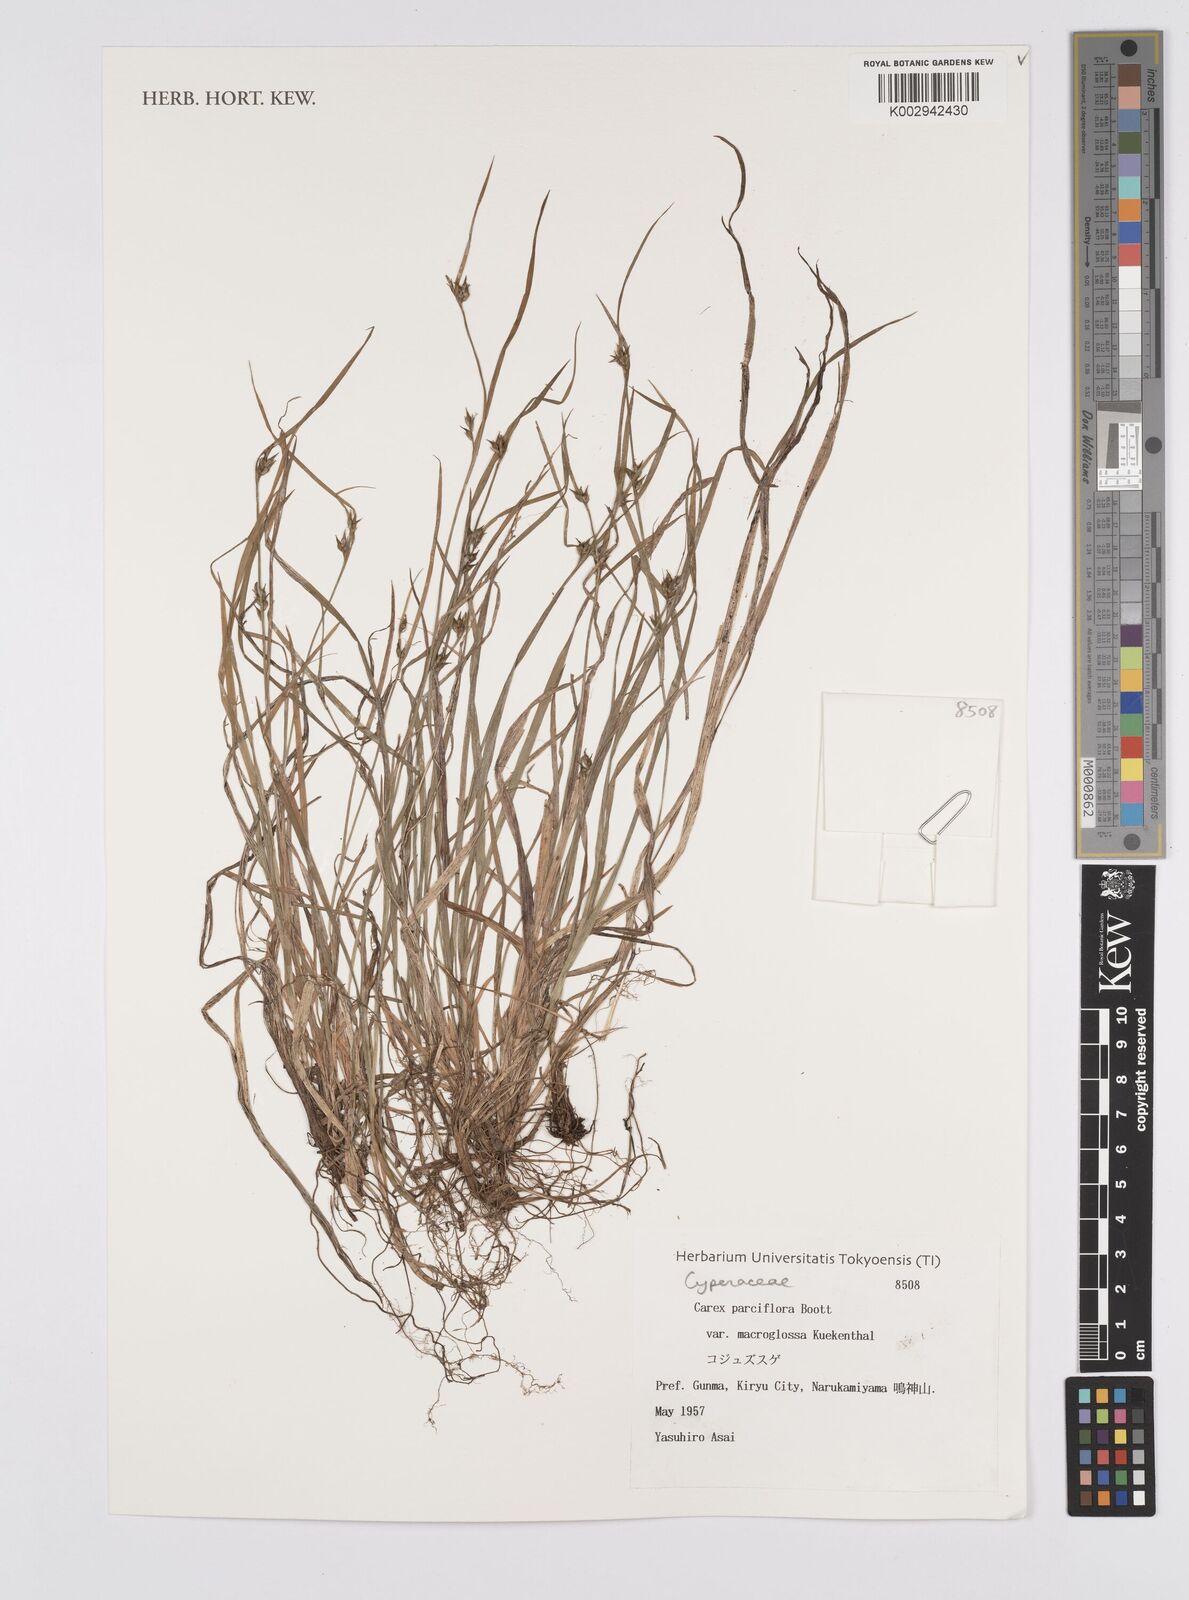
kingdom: Plantae
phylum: Tracheophyta
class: Liliopsida
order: Poales
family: Cyperaceae
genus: Carex
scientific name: Carex jackiana
